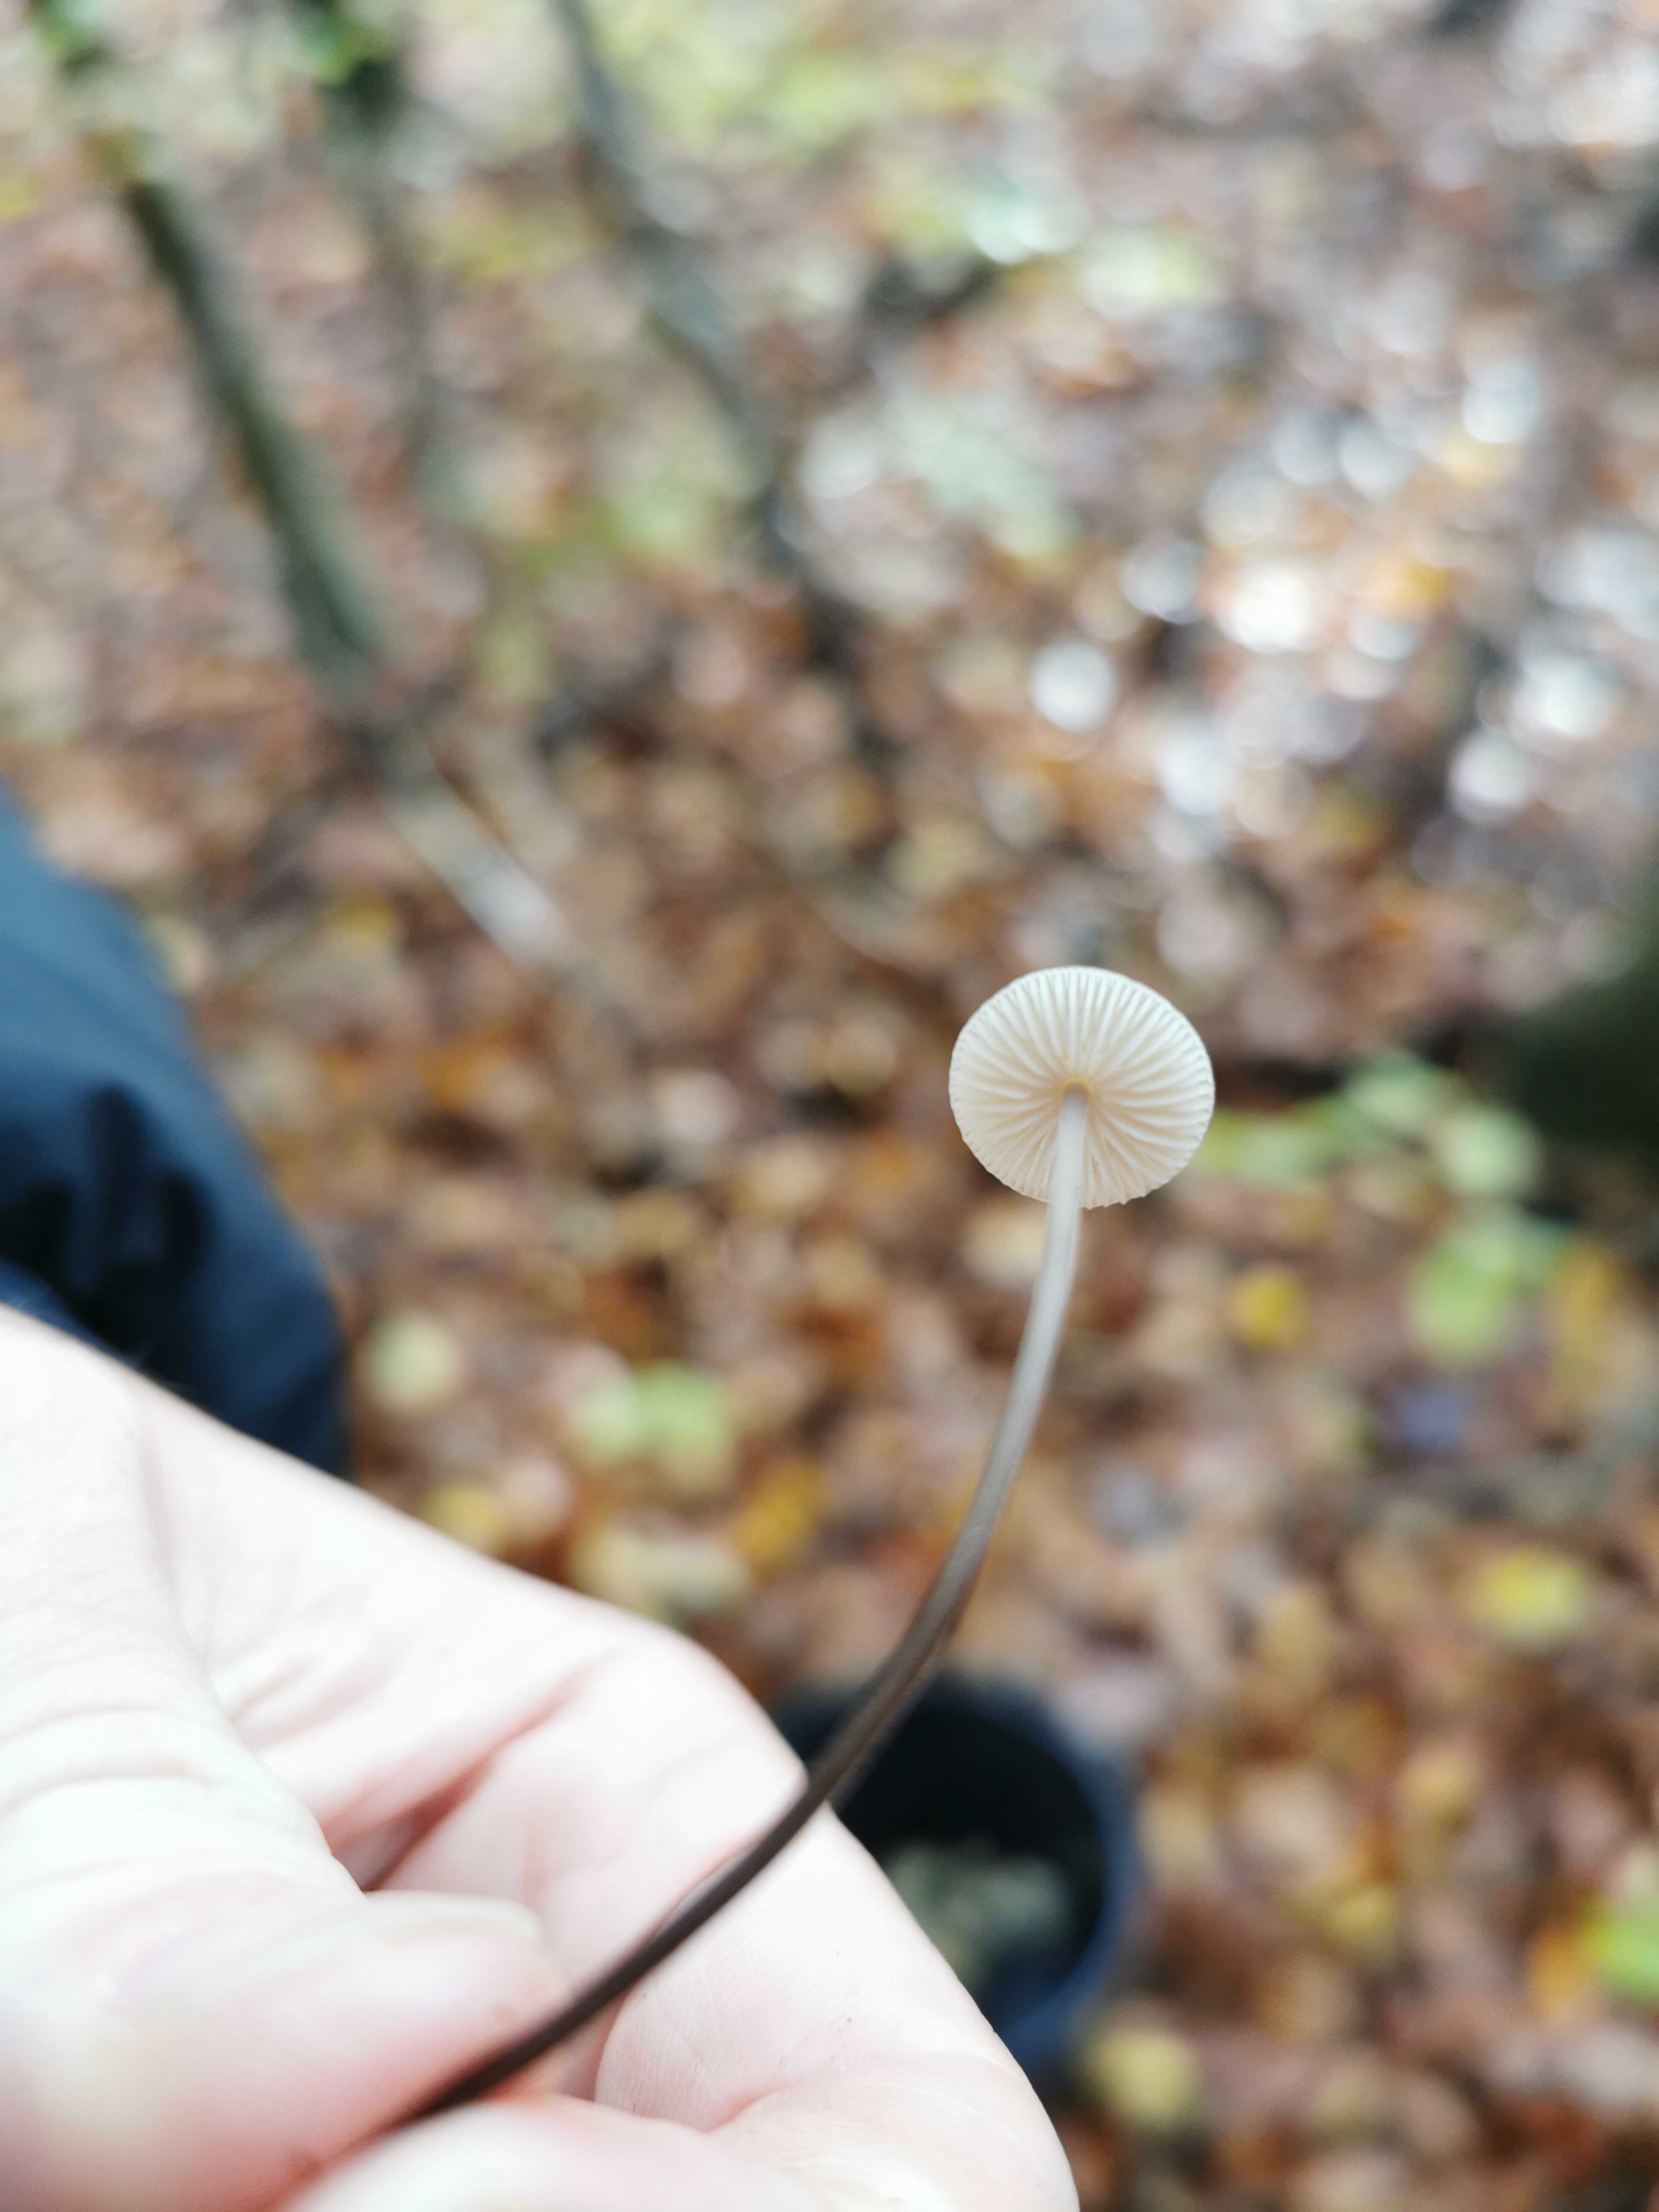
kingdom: Fungi
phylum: Basidiomycota
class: Agaricomycetes
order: Agaricales
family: Omphalotaceae
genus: Mycetinis
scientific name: Mycetinis alliaceus
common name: stor løghat
